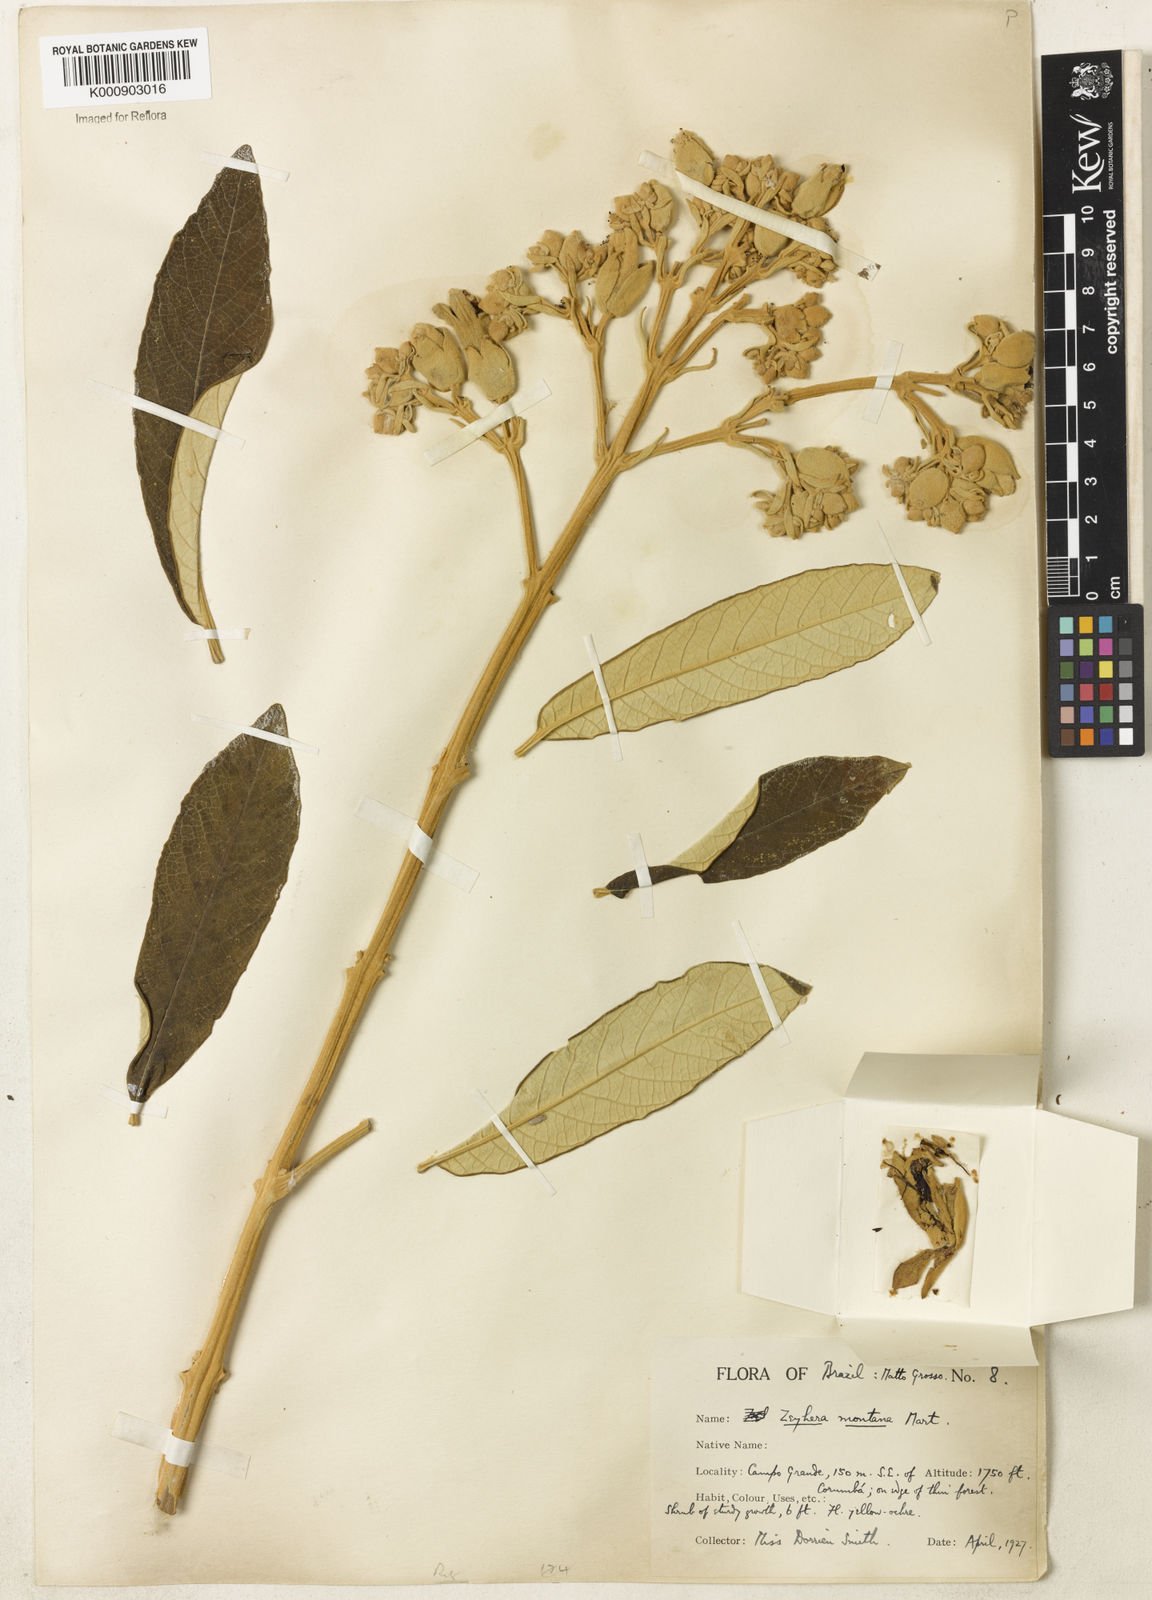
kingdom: Plantae
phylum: Tracheophyta
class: Magnoliopsida
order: Lamiales
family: Bignoniaceae
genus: Zeyheria
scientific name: Zeyheria montana
